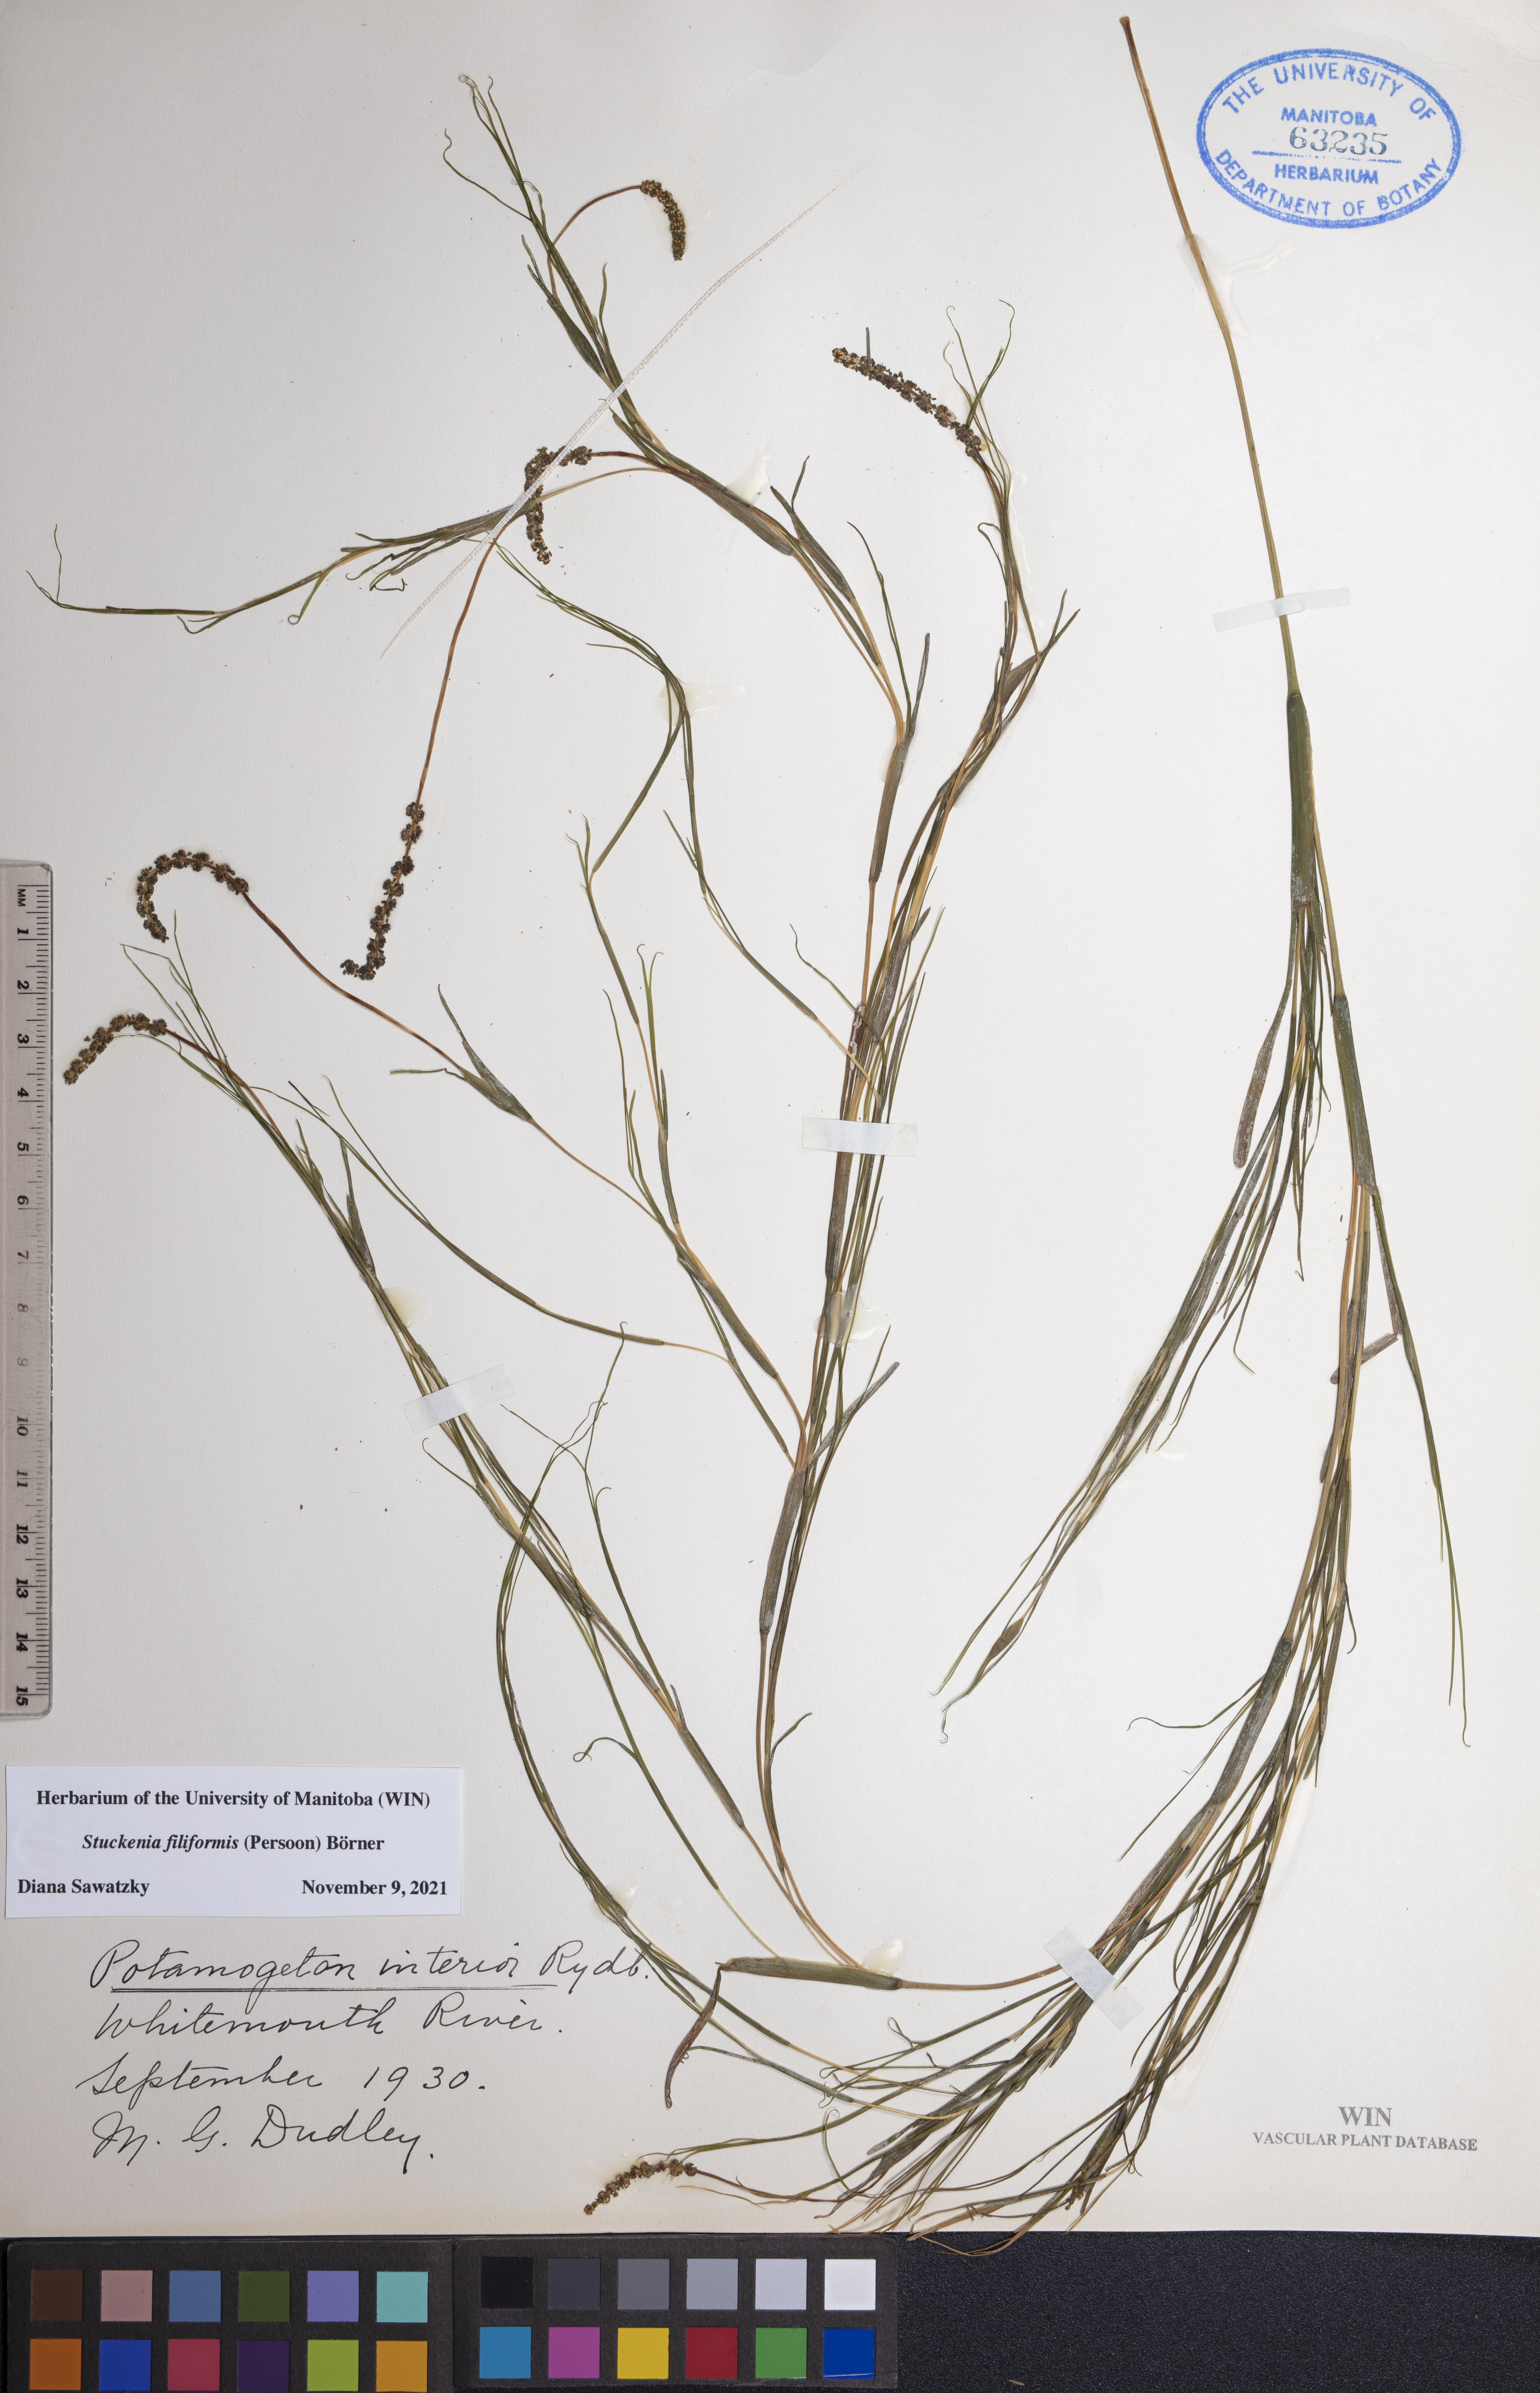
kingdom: Plantae
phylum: Tracheophyta
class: Liliopsida
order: Alismatales
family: Potamogetonaceae
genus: Stuckenia
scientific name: Stuckenia filiformis
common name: Alpine thread-leaved pondweed
